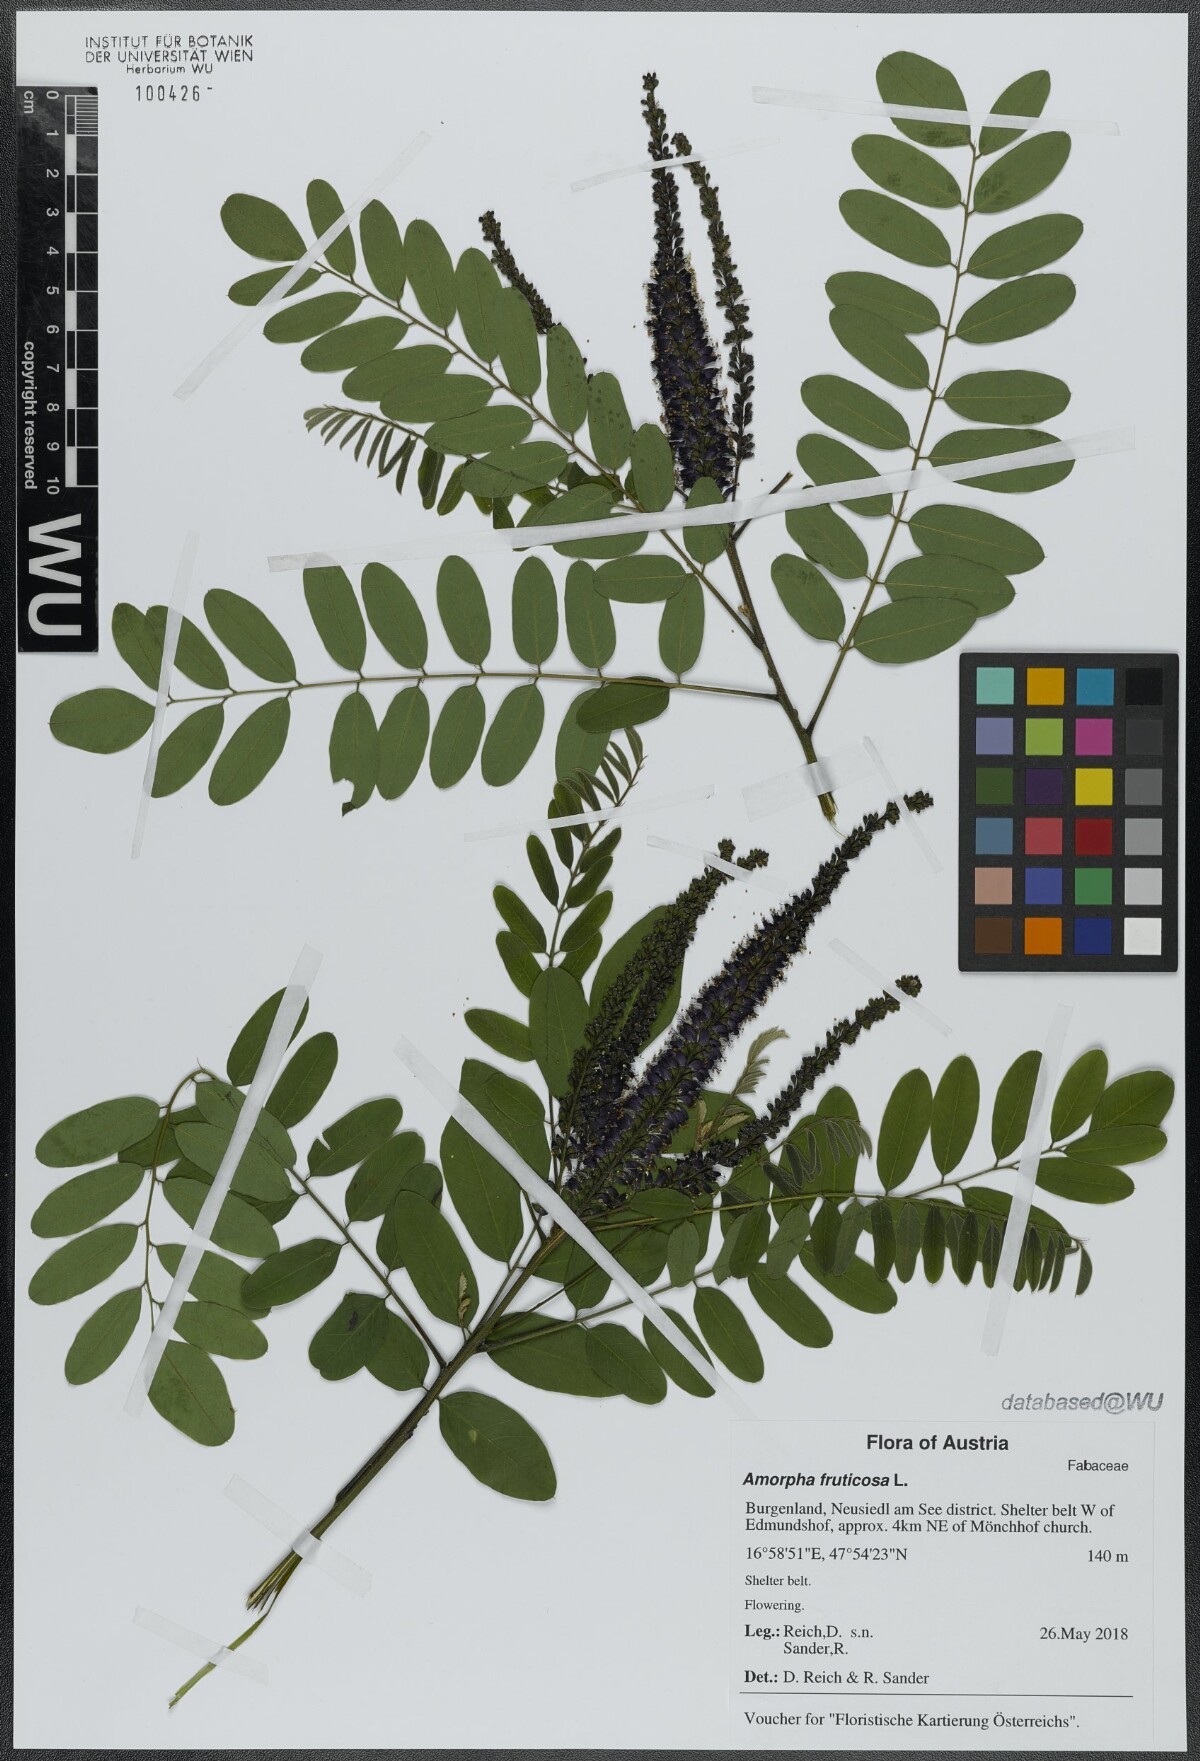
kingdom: Plantae
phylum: Tracheophyta
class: Magnoliopsida
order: Fabales
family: Fabaceae
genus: Amorpha
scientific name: Amorpha fruticosa
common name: False indigo
